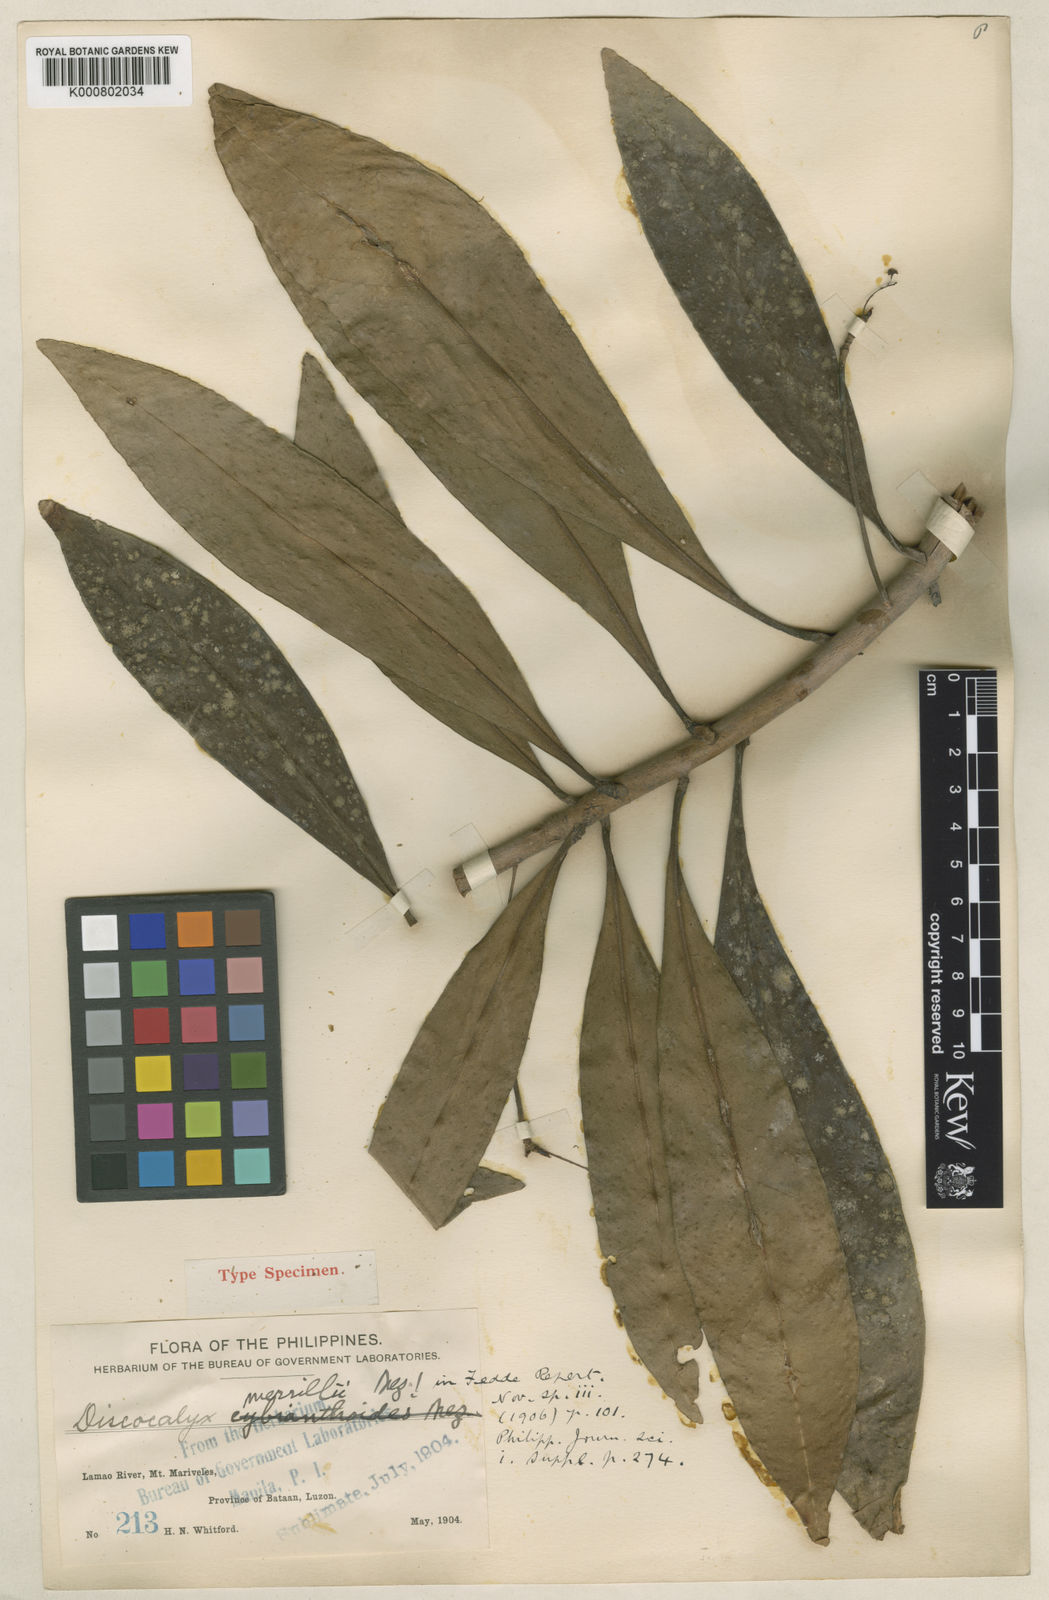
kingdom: Plantae
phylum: Tracheophyta
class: Magnoliopsida
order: Ericales
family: Primulaceae
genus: Discocalyx
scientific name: Discocalyx merrillii
